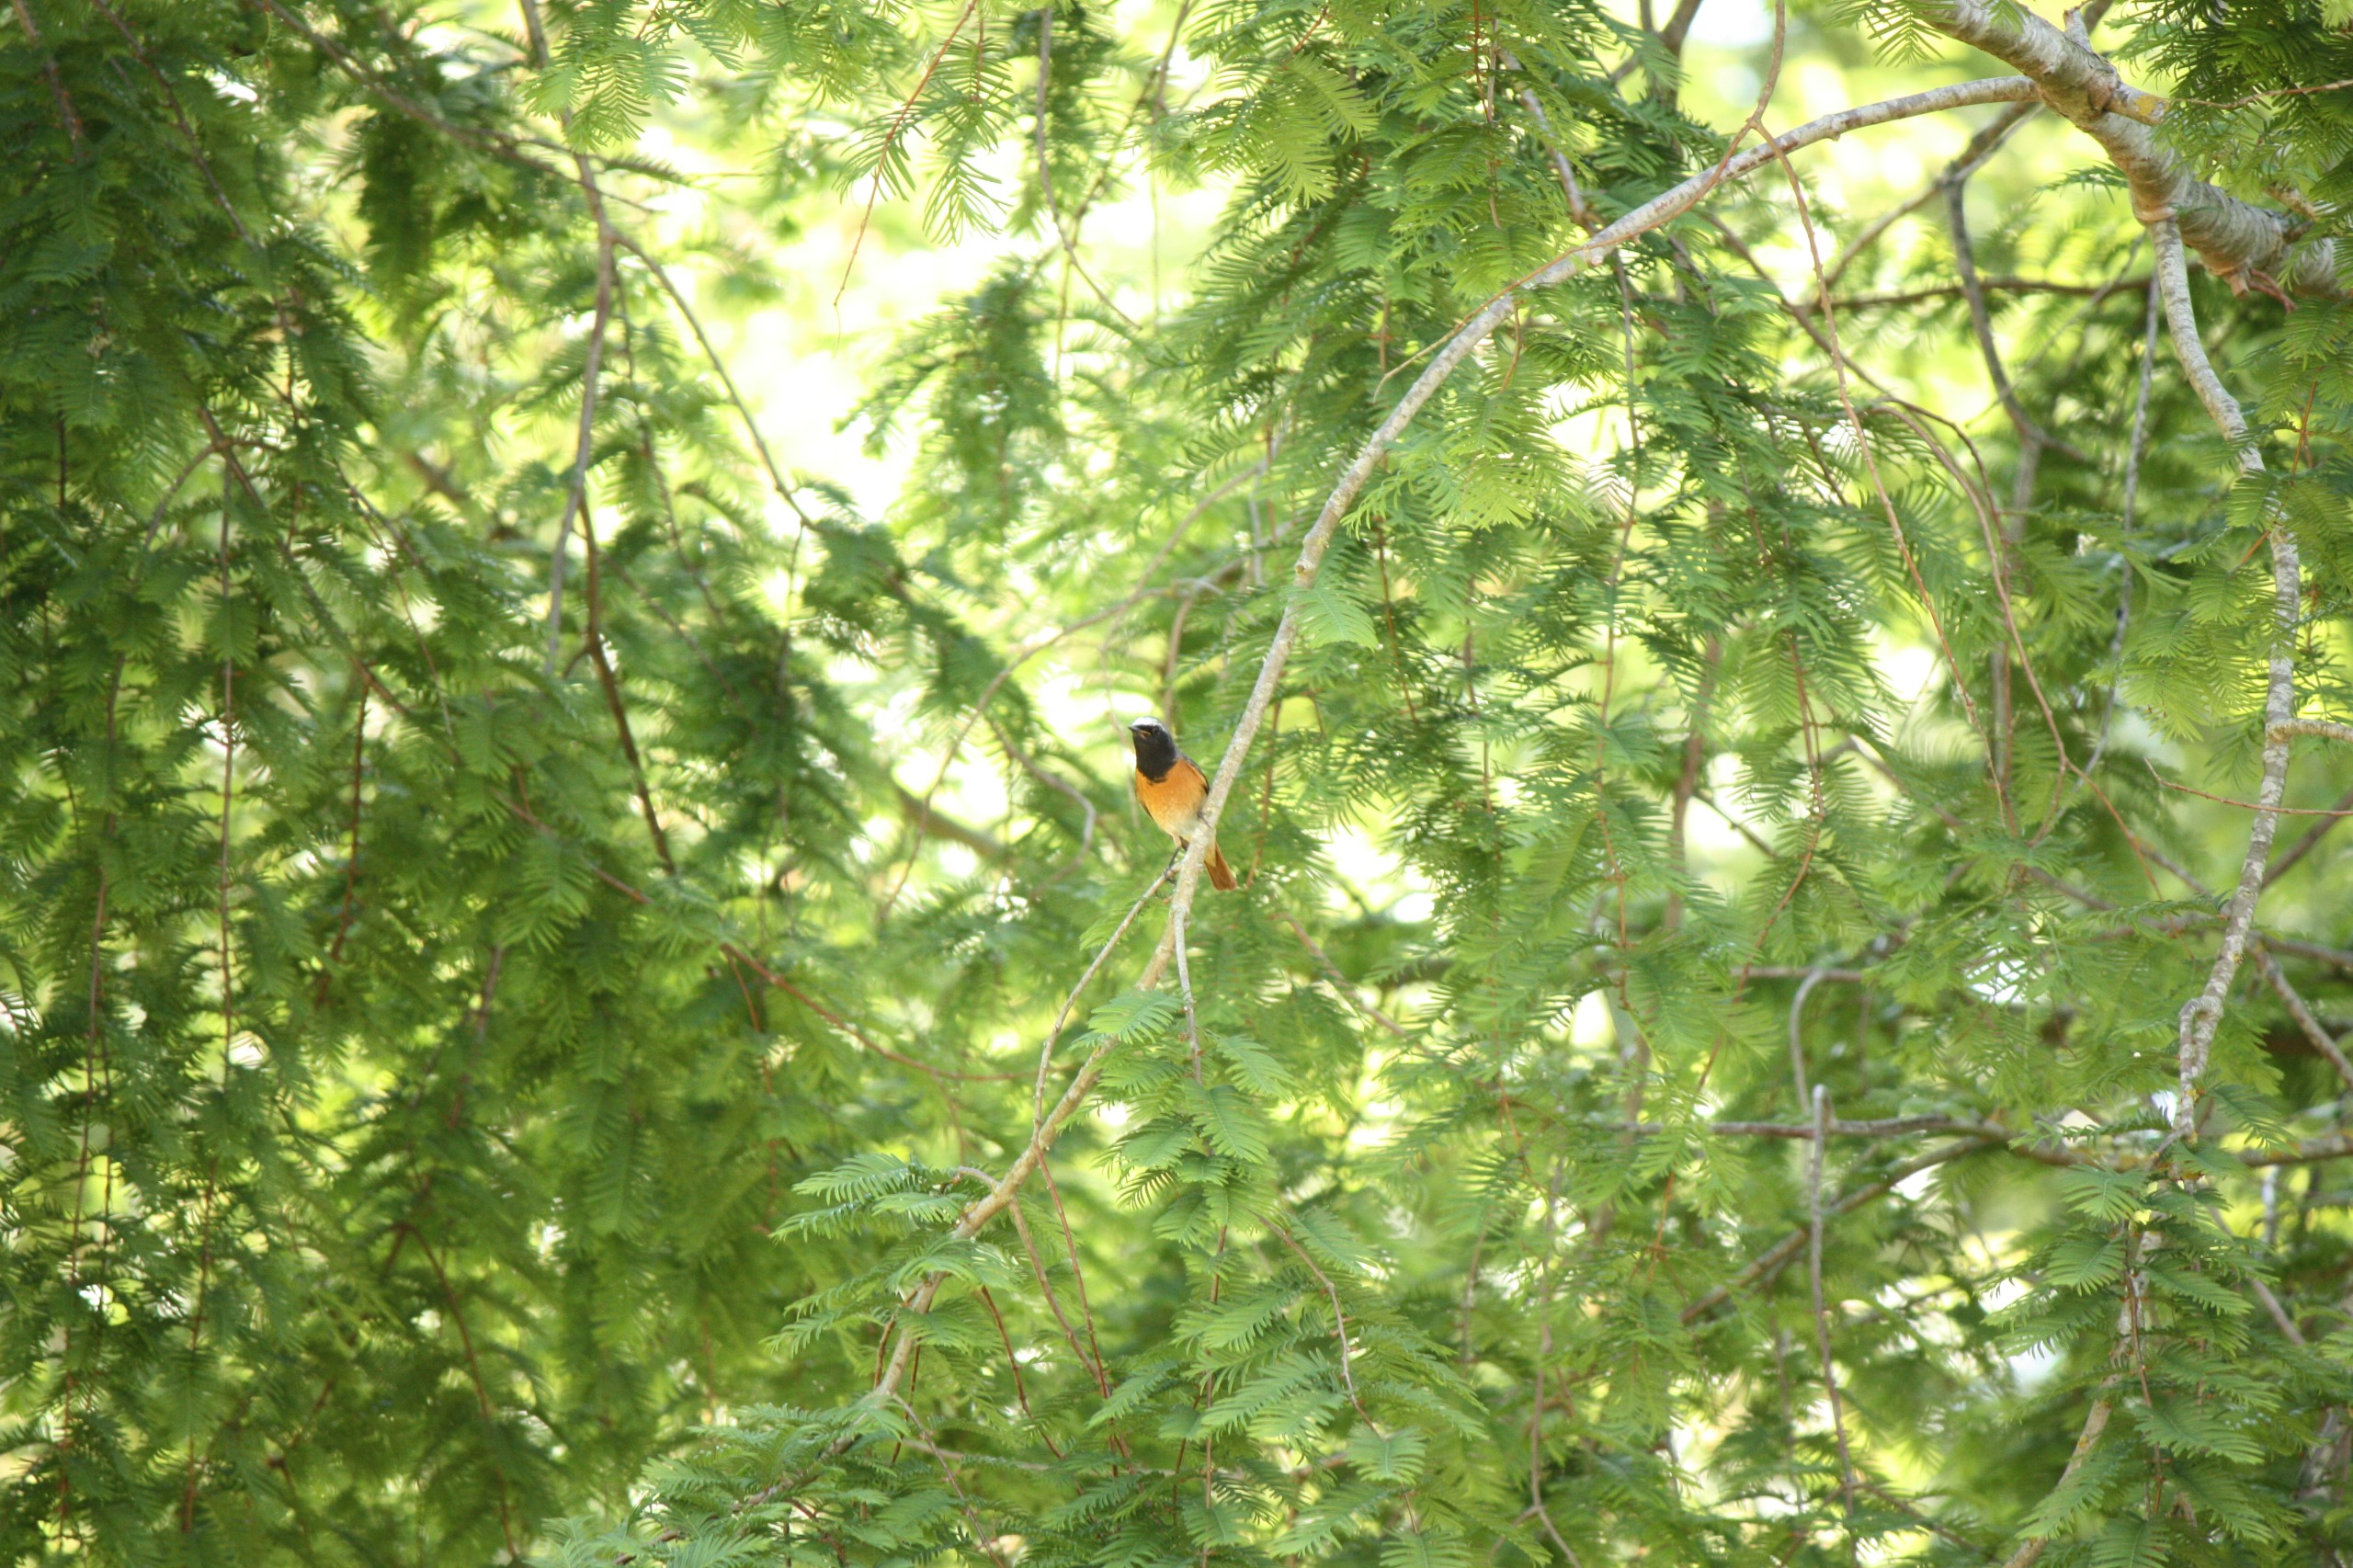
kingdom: Animalia
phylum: Chordata
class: Aves
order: Passeriformes
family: Muscicapidae
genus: Phoenicurus
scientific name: Phoenicurus phoenicurus
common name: Rødstjert
